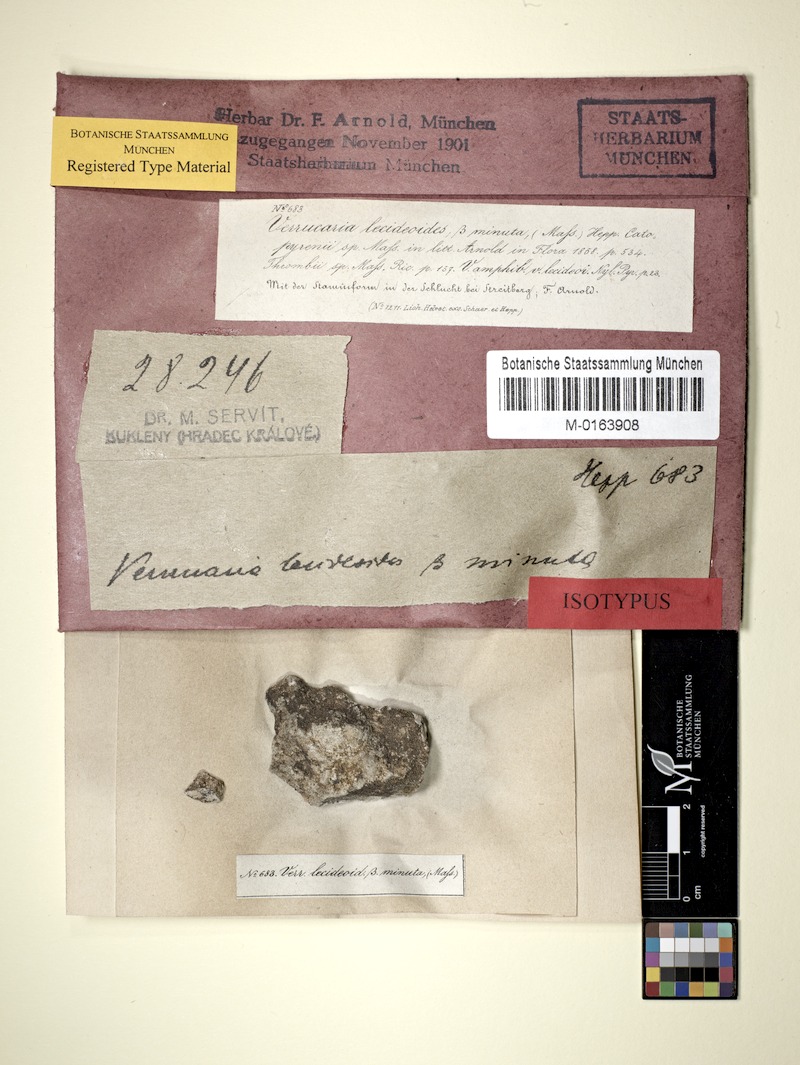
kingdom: Fungi
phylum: Ascomycota
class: Eurotiomycetes
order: Verrucariales
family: Verrucariaceae
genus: Verruculopsis
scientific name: Verruculopsis
